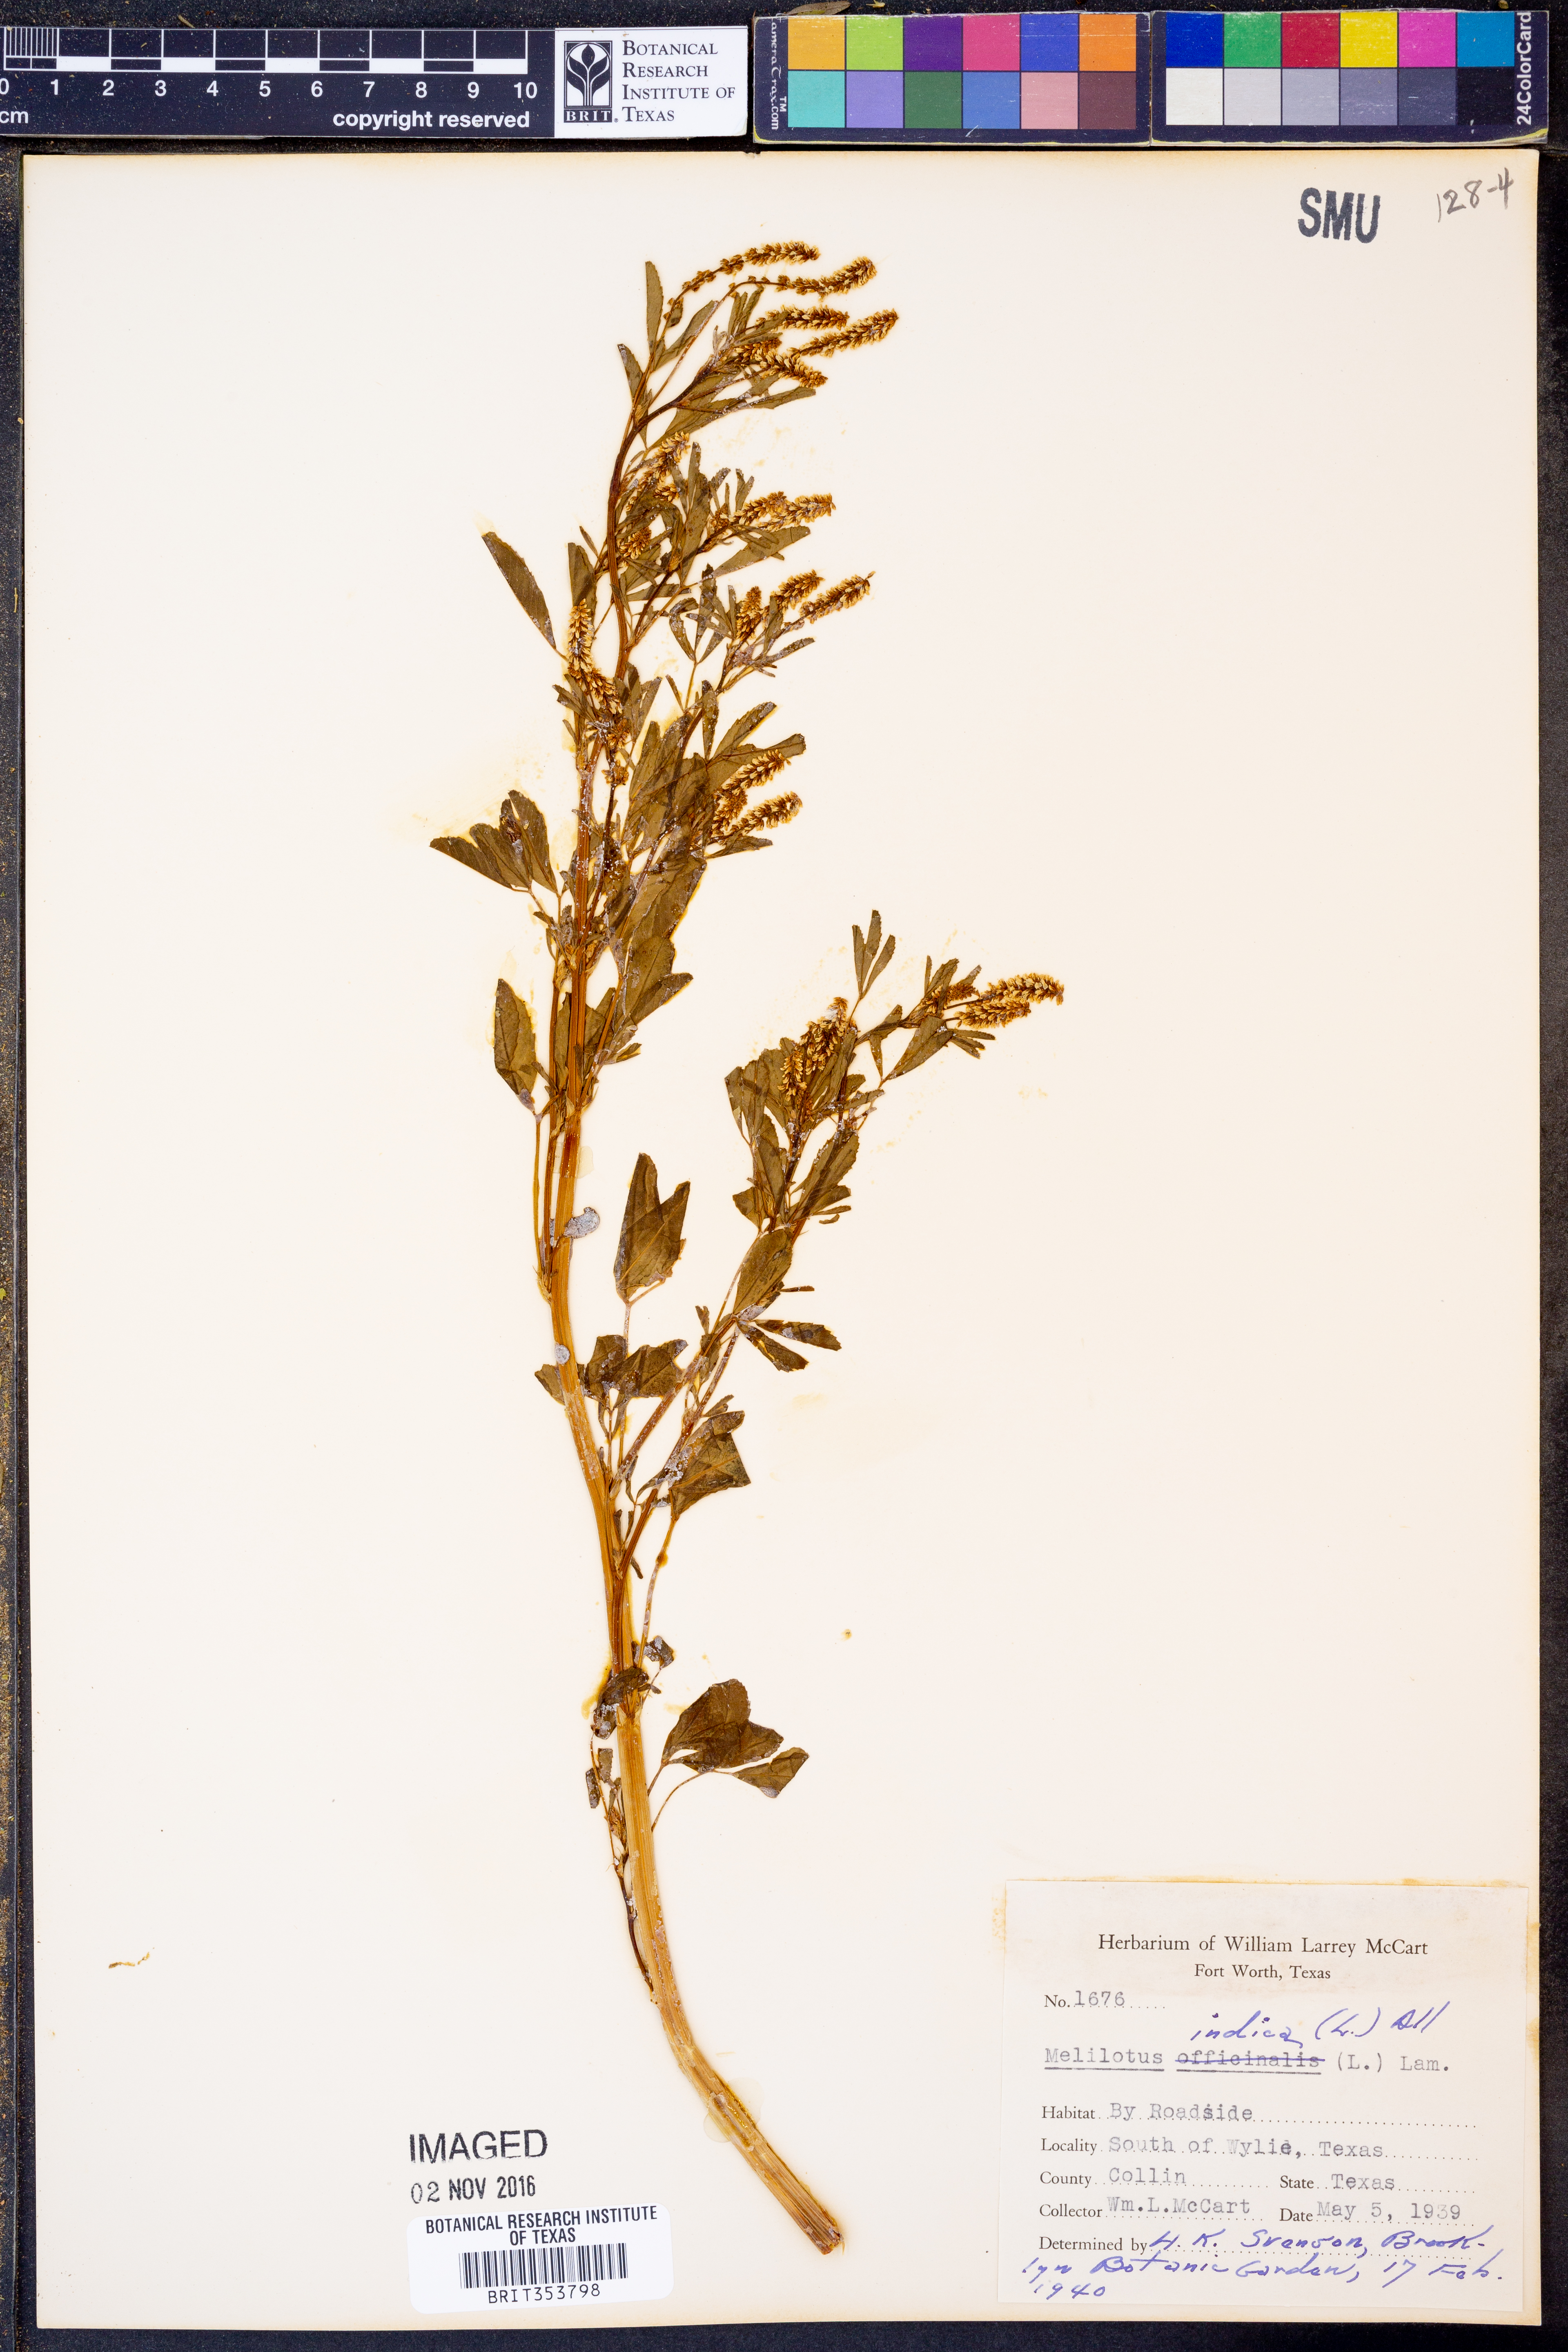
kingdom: Plantae
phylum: Tracheophyta
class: Magnoliopsida
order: Fabales
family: Fabaceae
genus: Melilotus
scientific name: Melilotus indicus
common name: Small melilot
